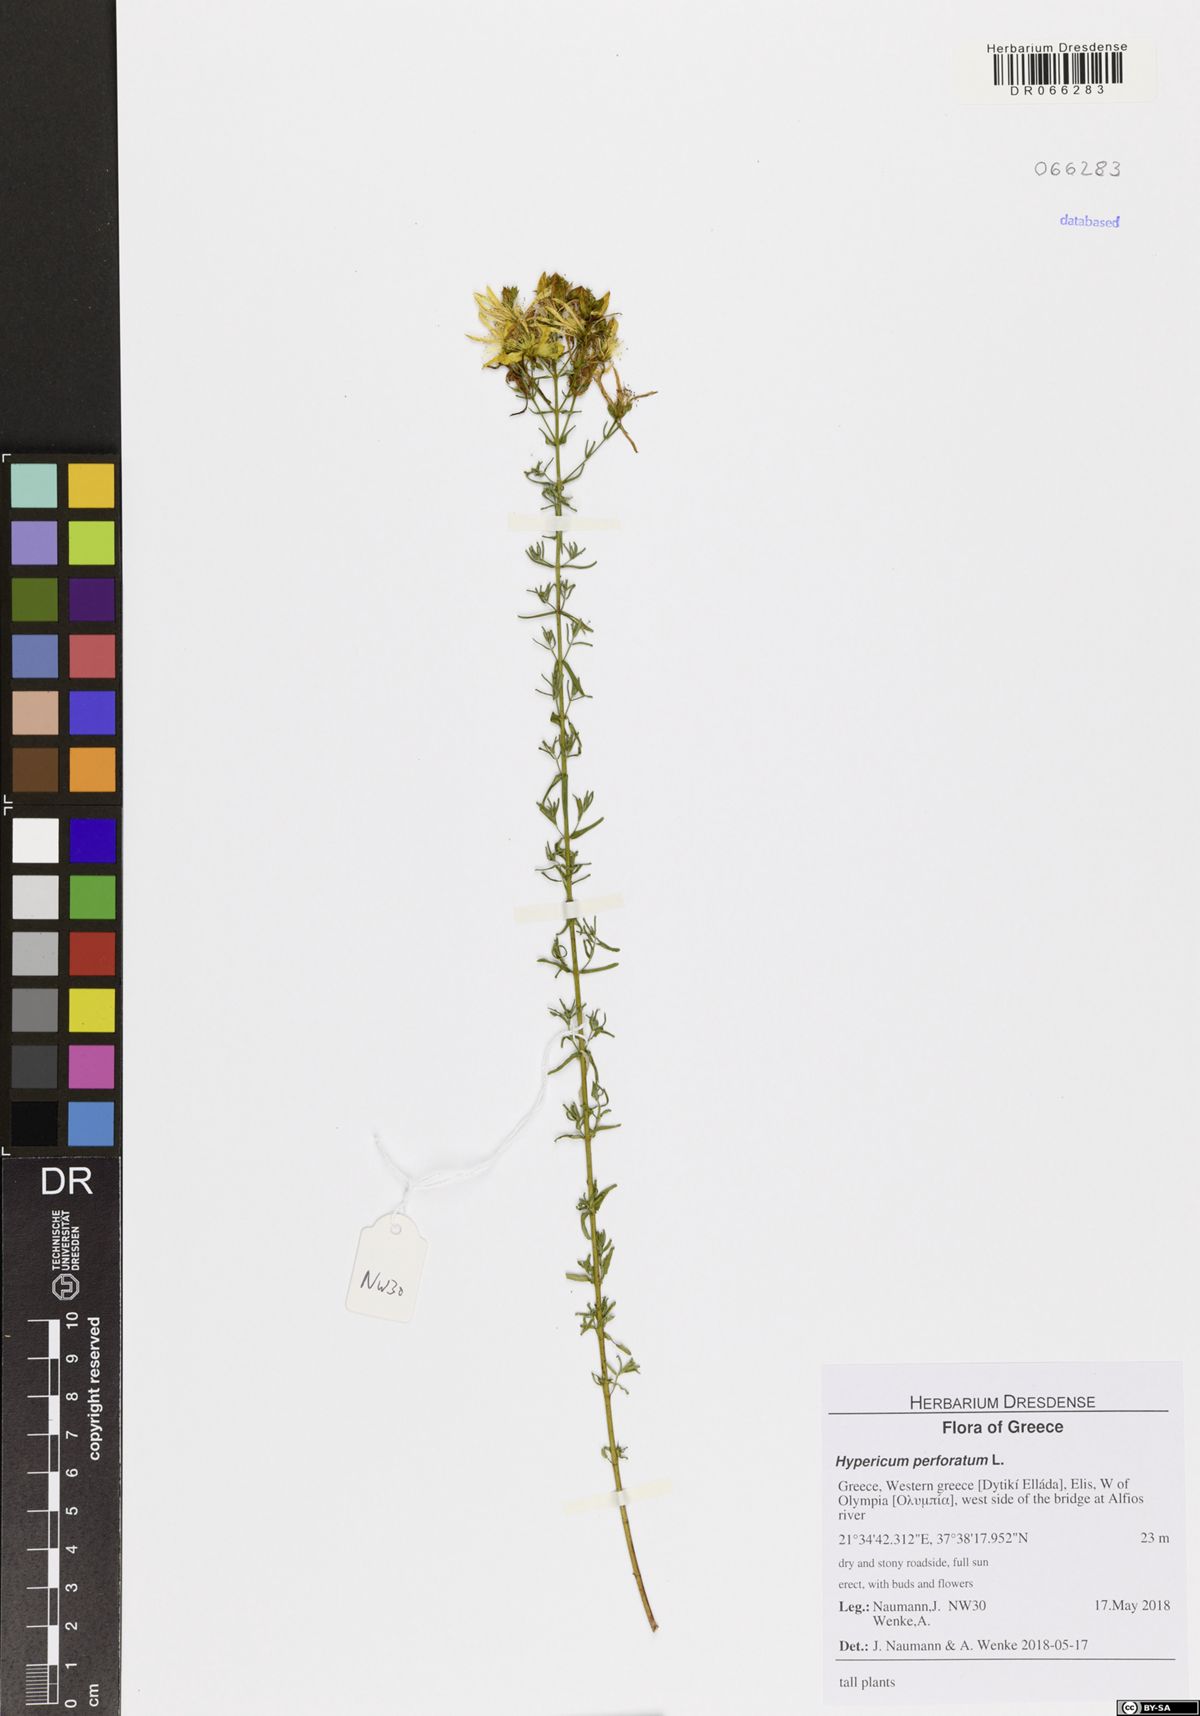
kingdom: Plantae
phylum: Tracheophyta
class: Magnoliopsida
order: Malpighiales
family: Hypericaceae
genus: Hypericum
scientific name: Hypericum perforatum
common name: Common st. johnswort
